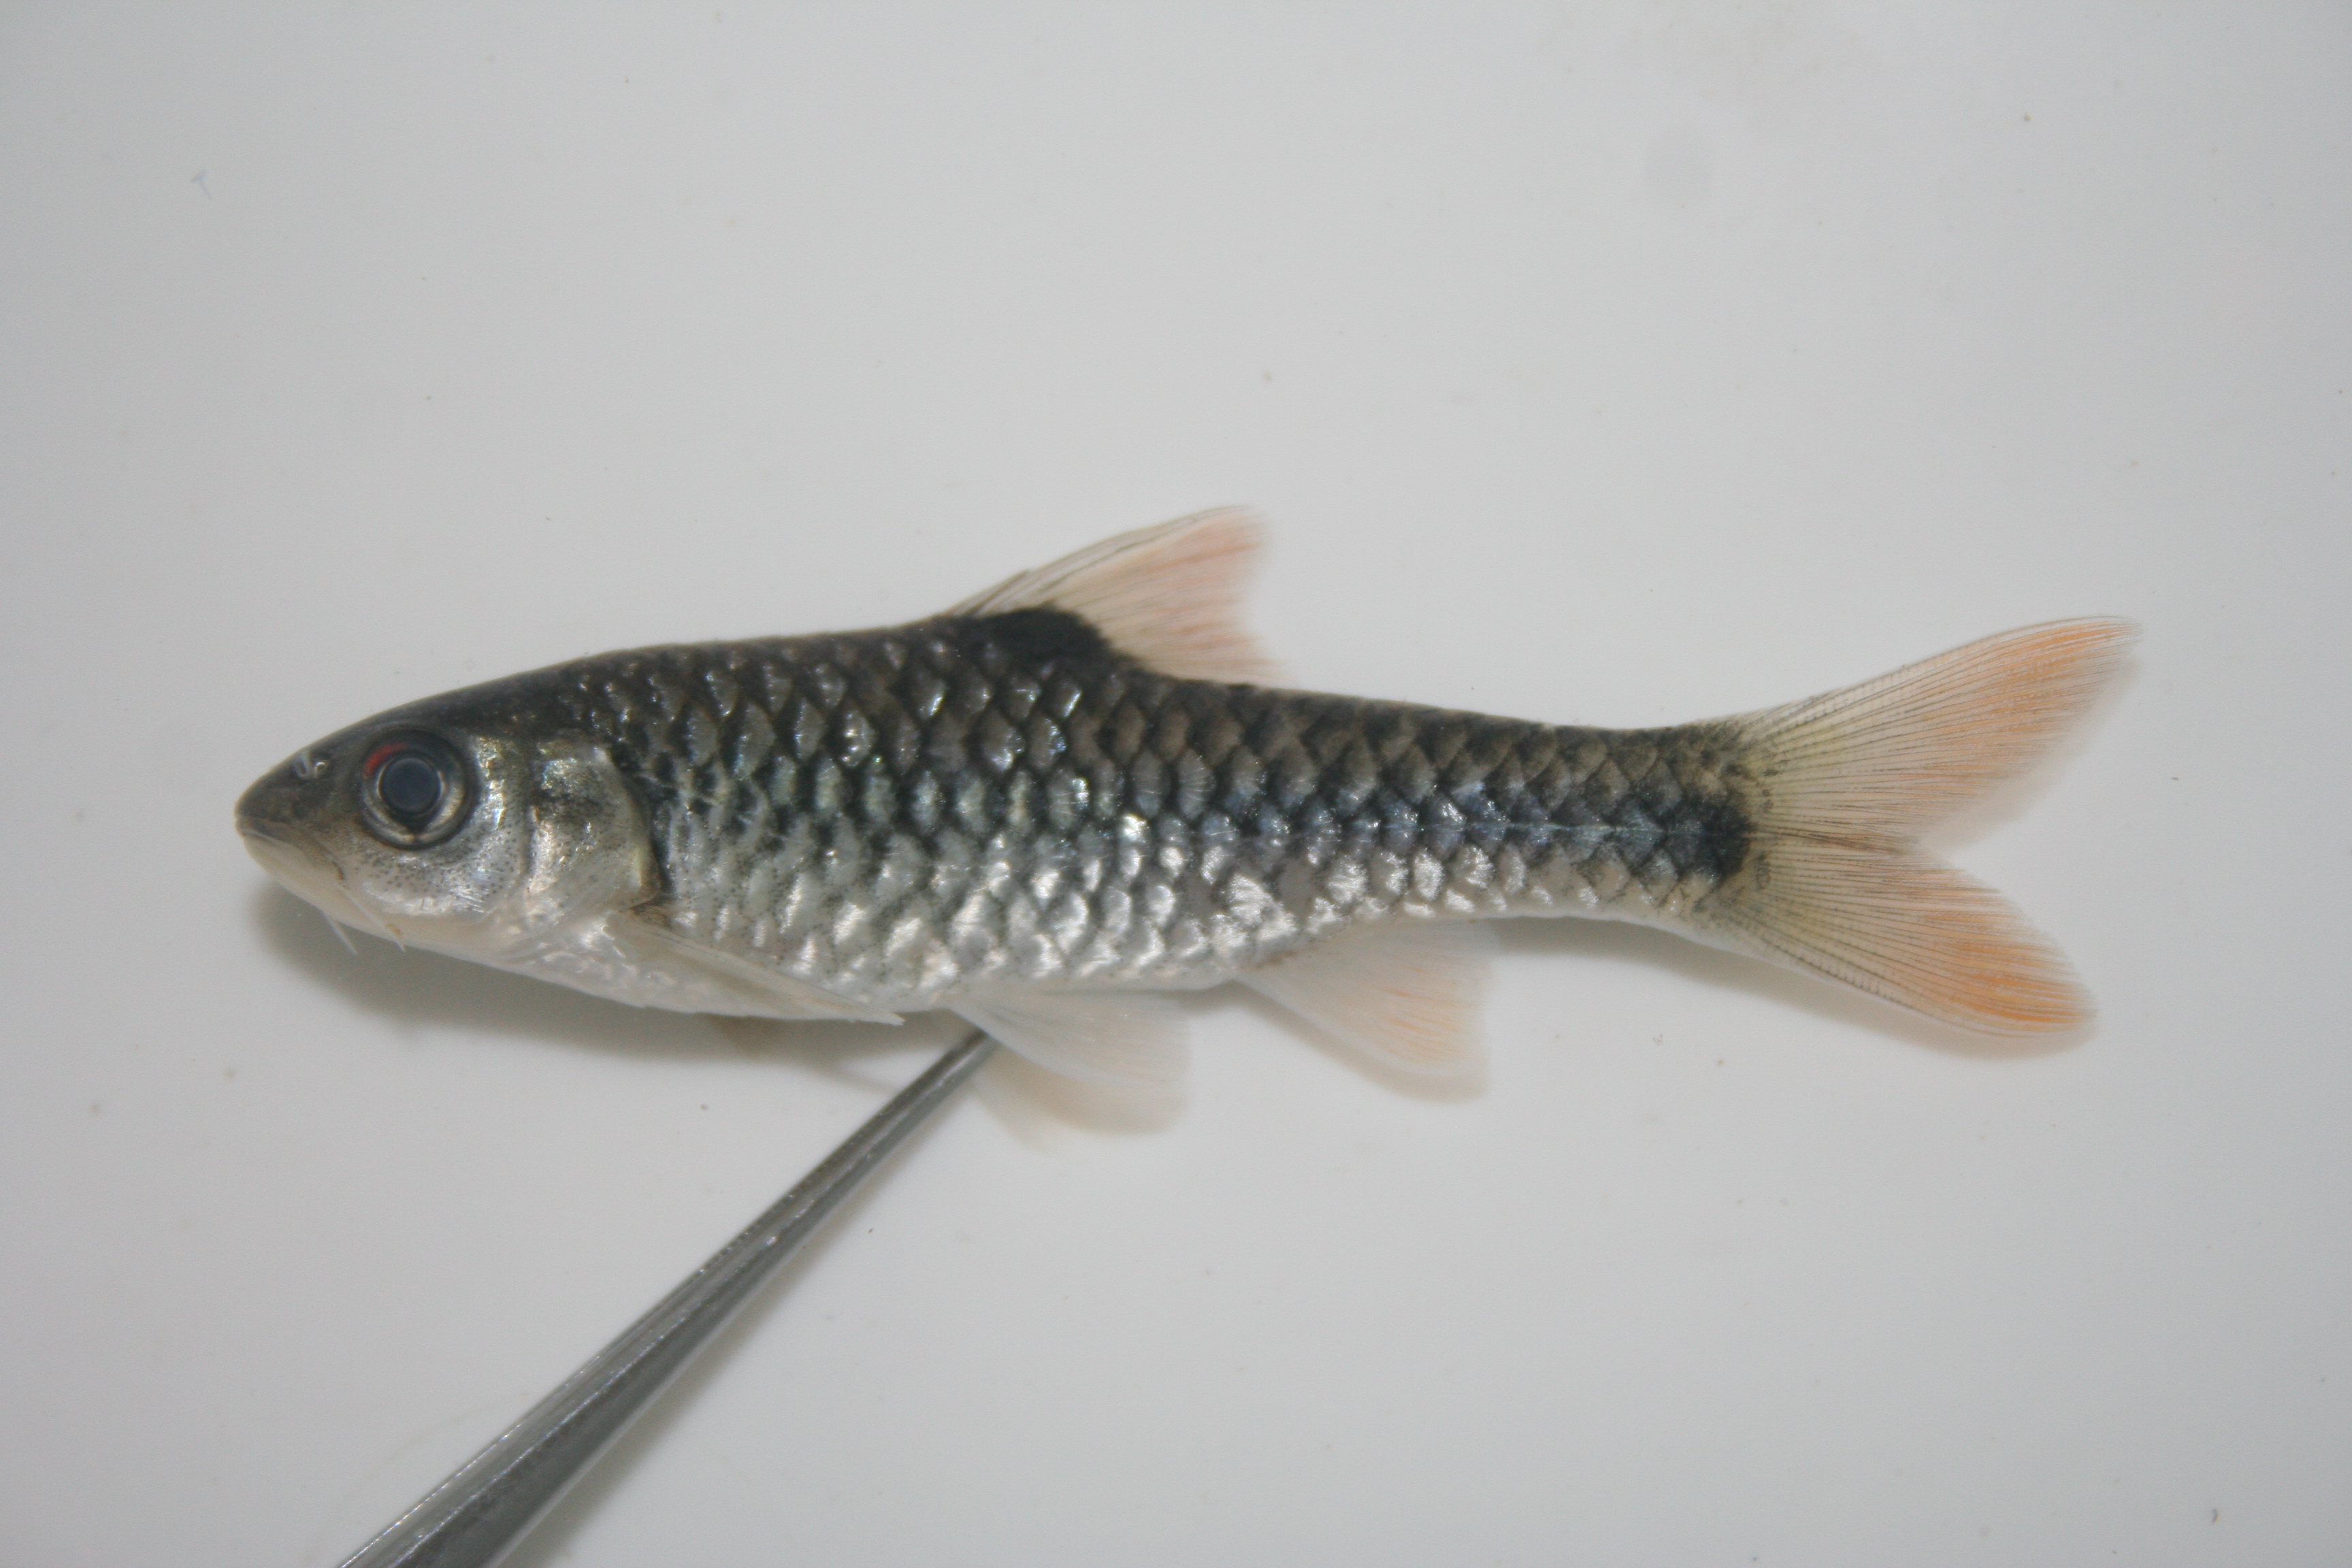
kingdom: Animalia
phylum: Chordata
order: Cypriniformes
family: Cyprinidae
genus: Enteromius
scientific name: Enteromius eutaenia
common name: Orangefin barb
